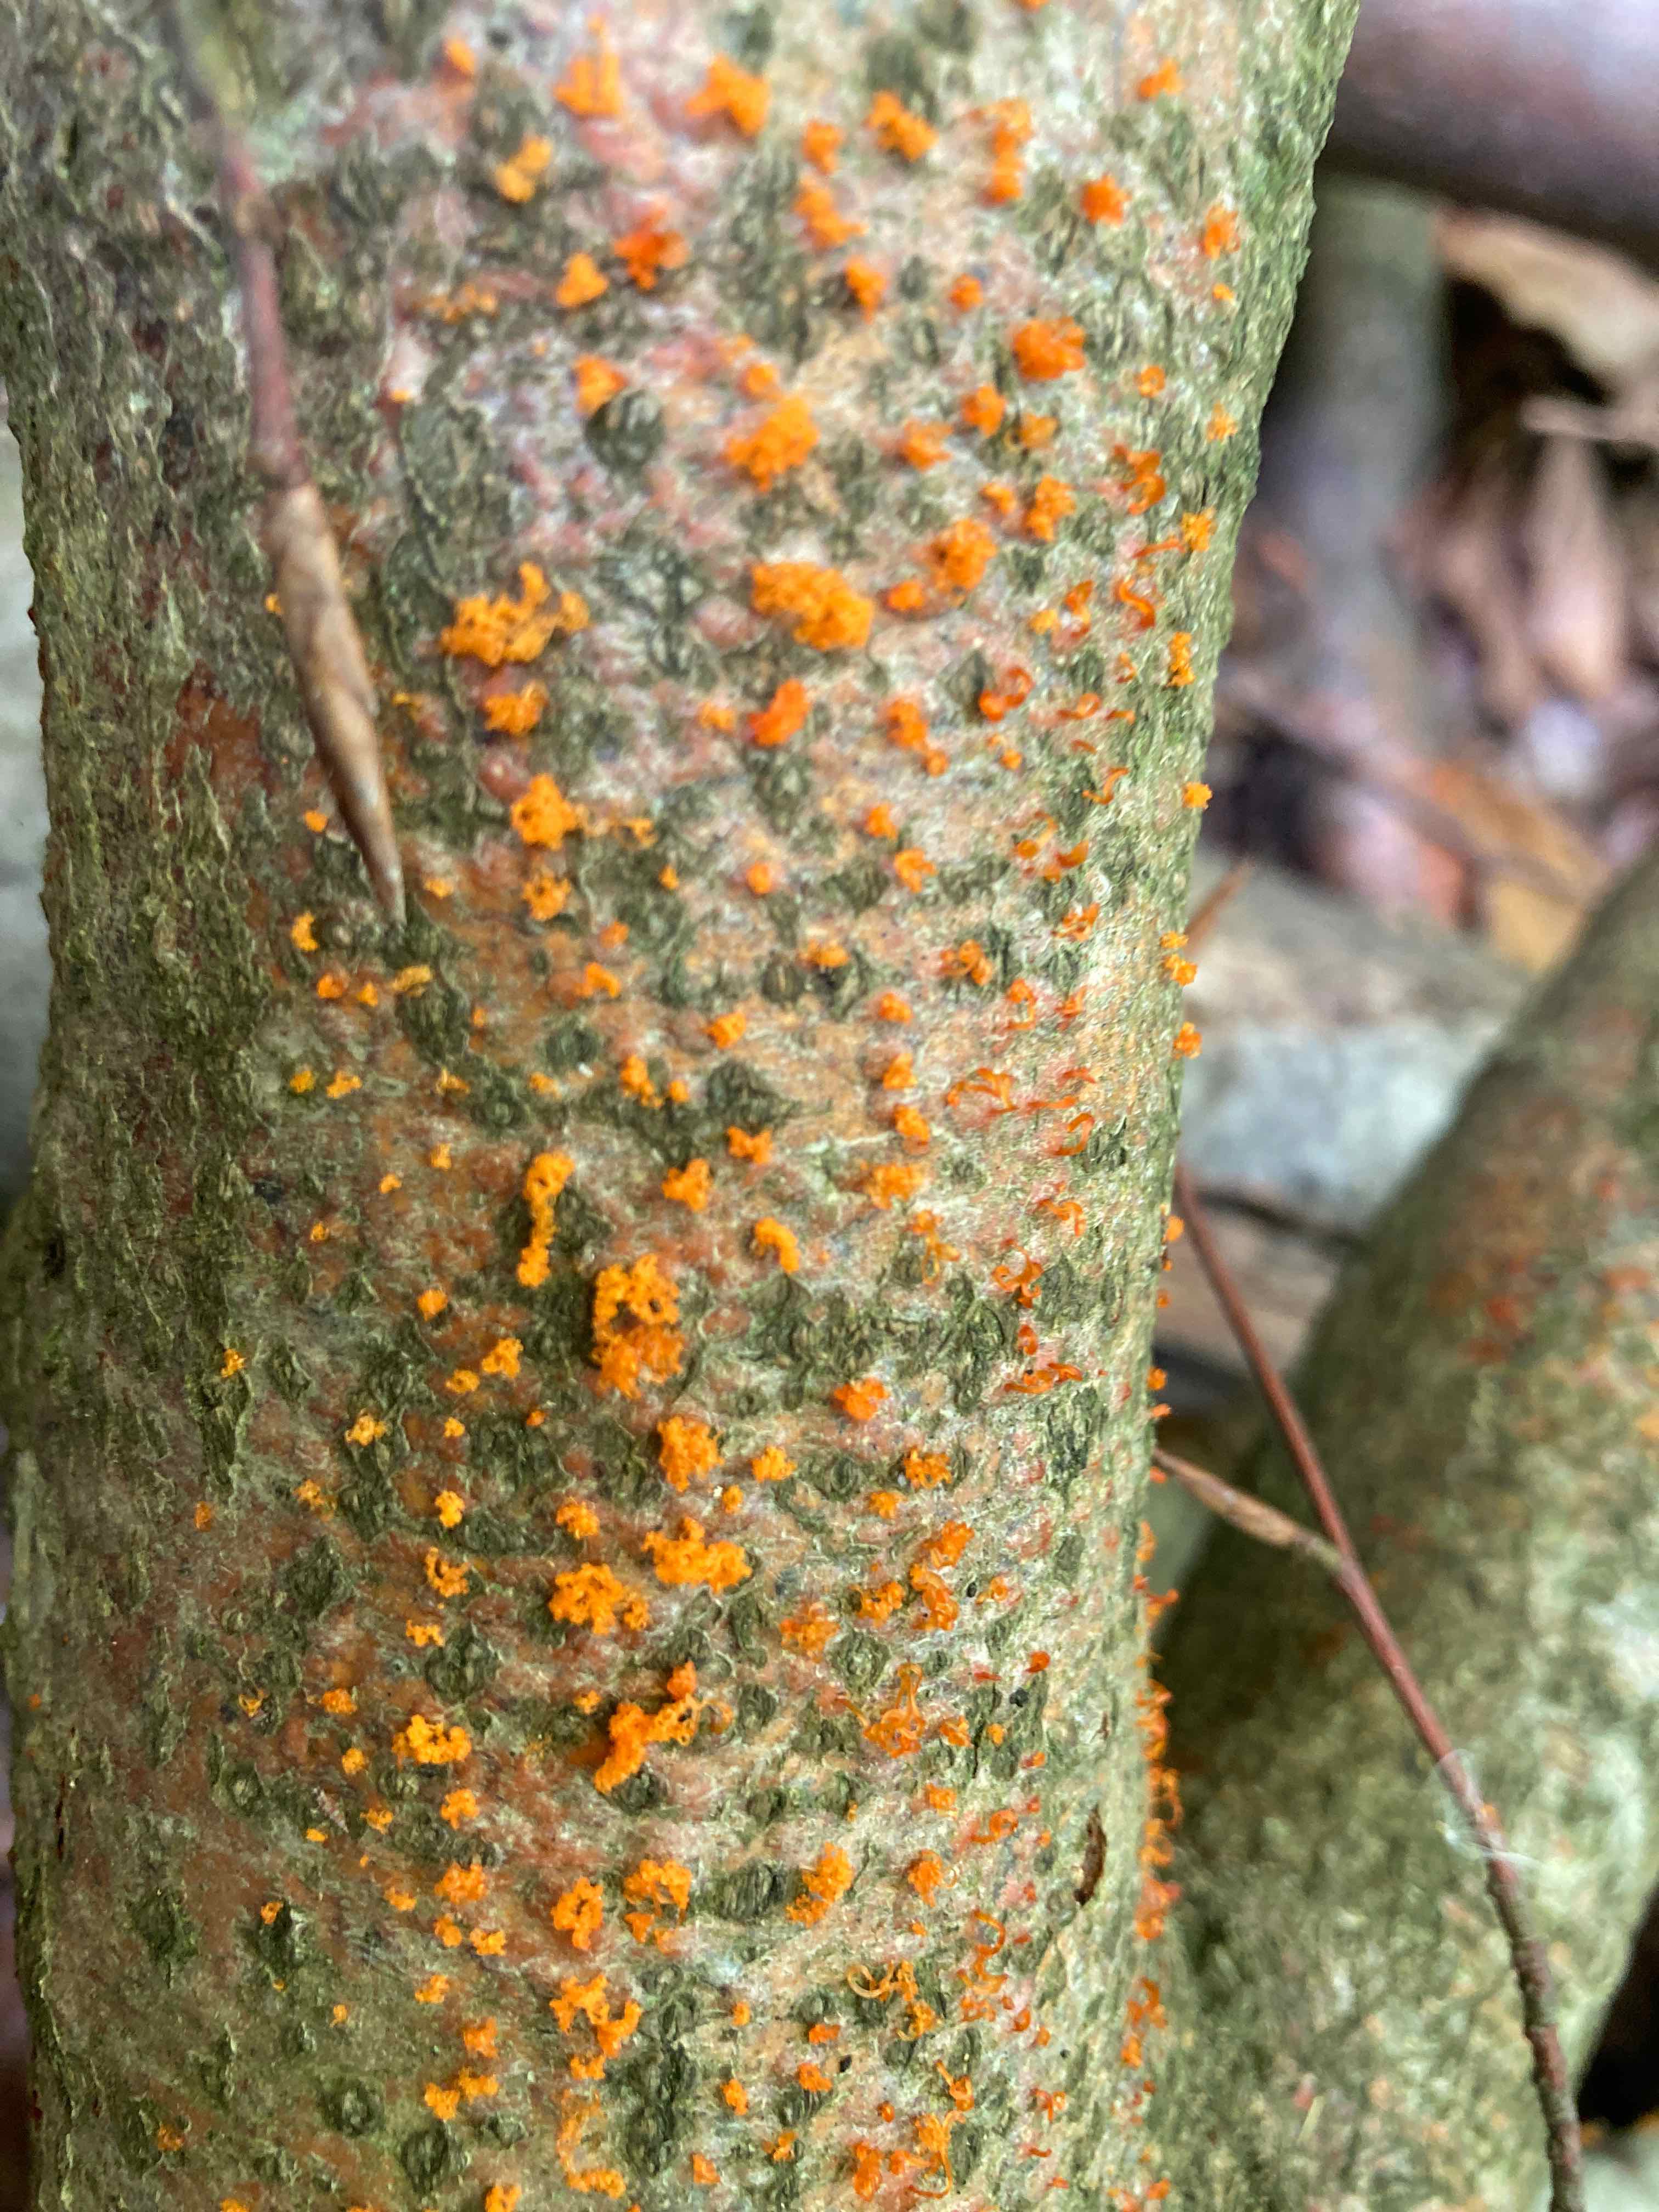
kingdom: Fungi
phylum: Ascomycota
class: Sordariomycetes
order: Xylariales
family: Diatrypaceae
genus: Eutypella
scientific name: Eutypella quaternata
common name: bøge-korsprik
